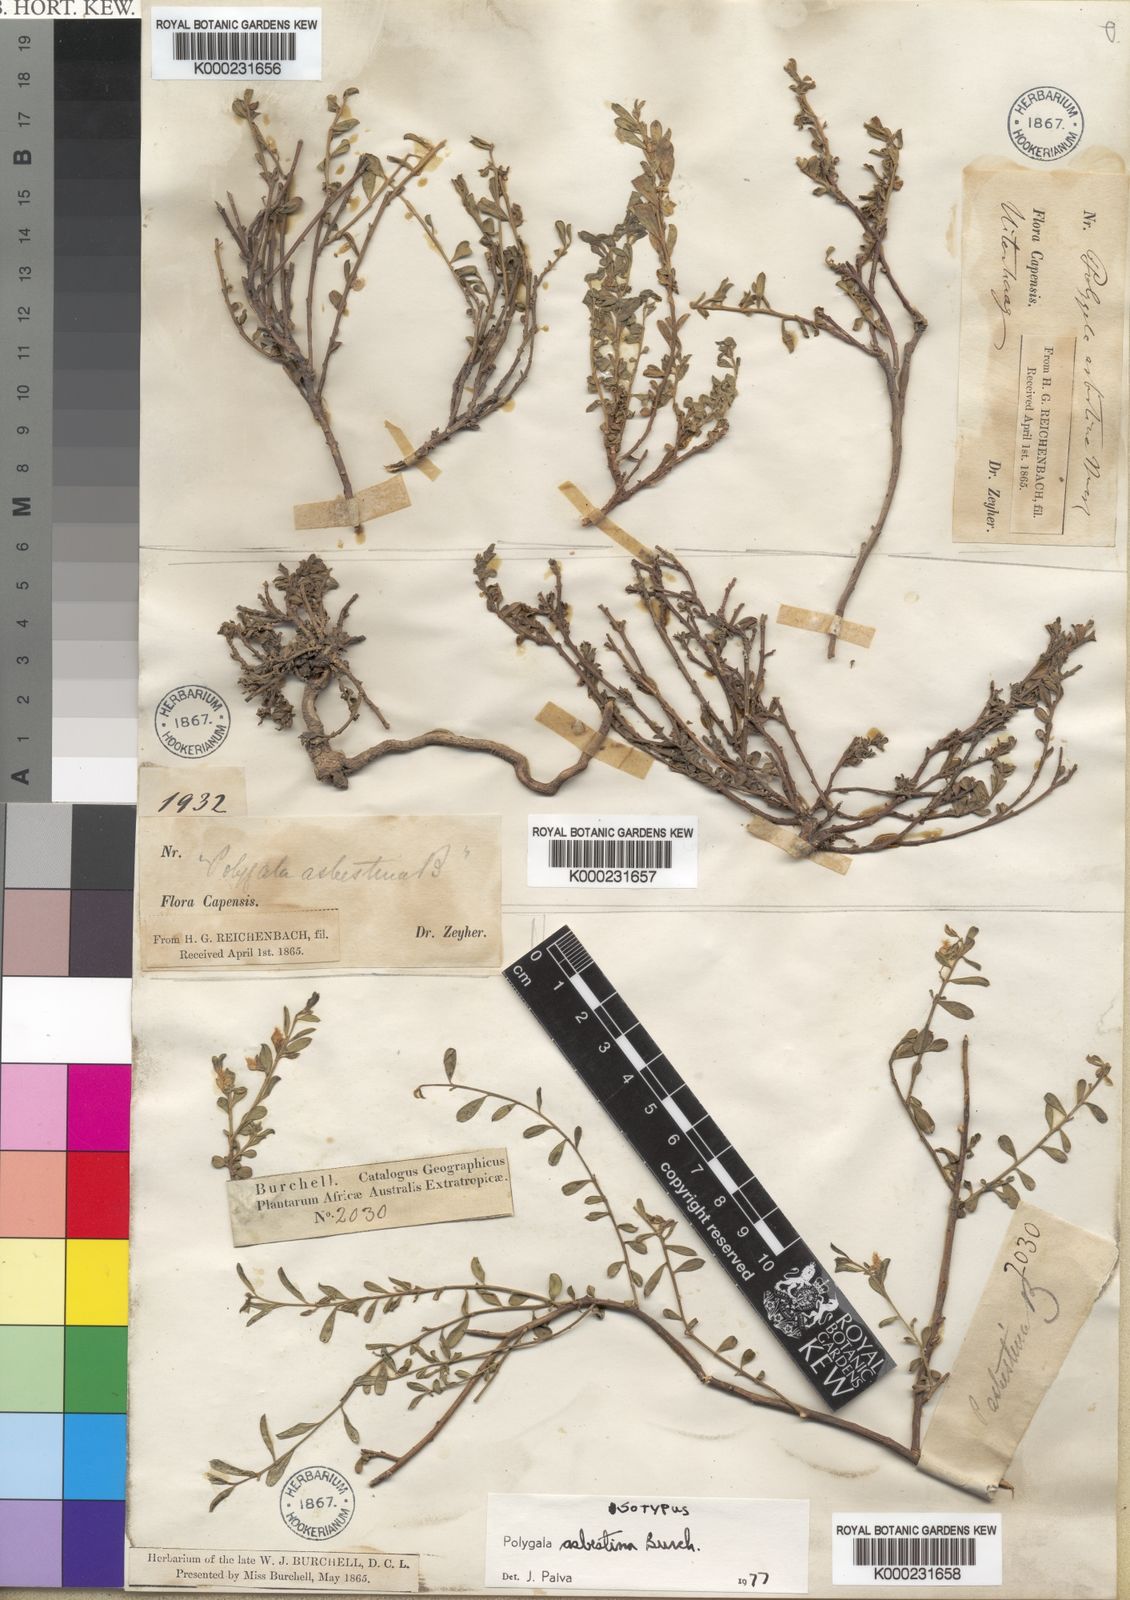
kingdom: Plantae
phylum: Tracheophyta
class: Magnoliopsida
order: Fabales
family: Polygalaceae
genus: Polygala
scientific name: Polygala asbestina
